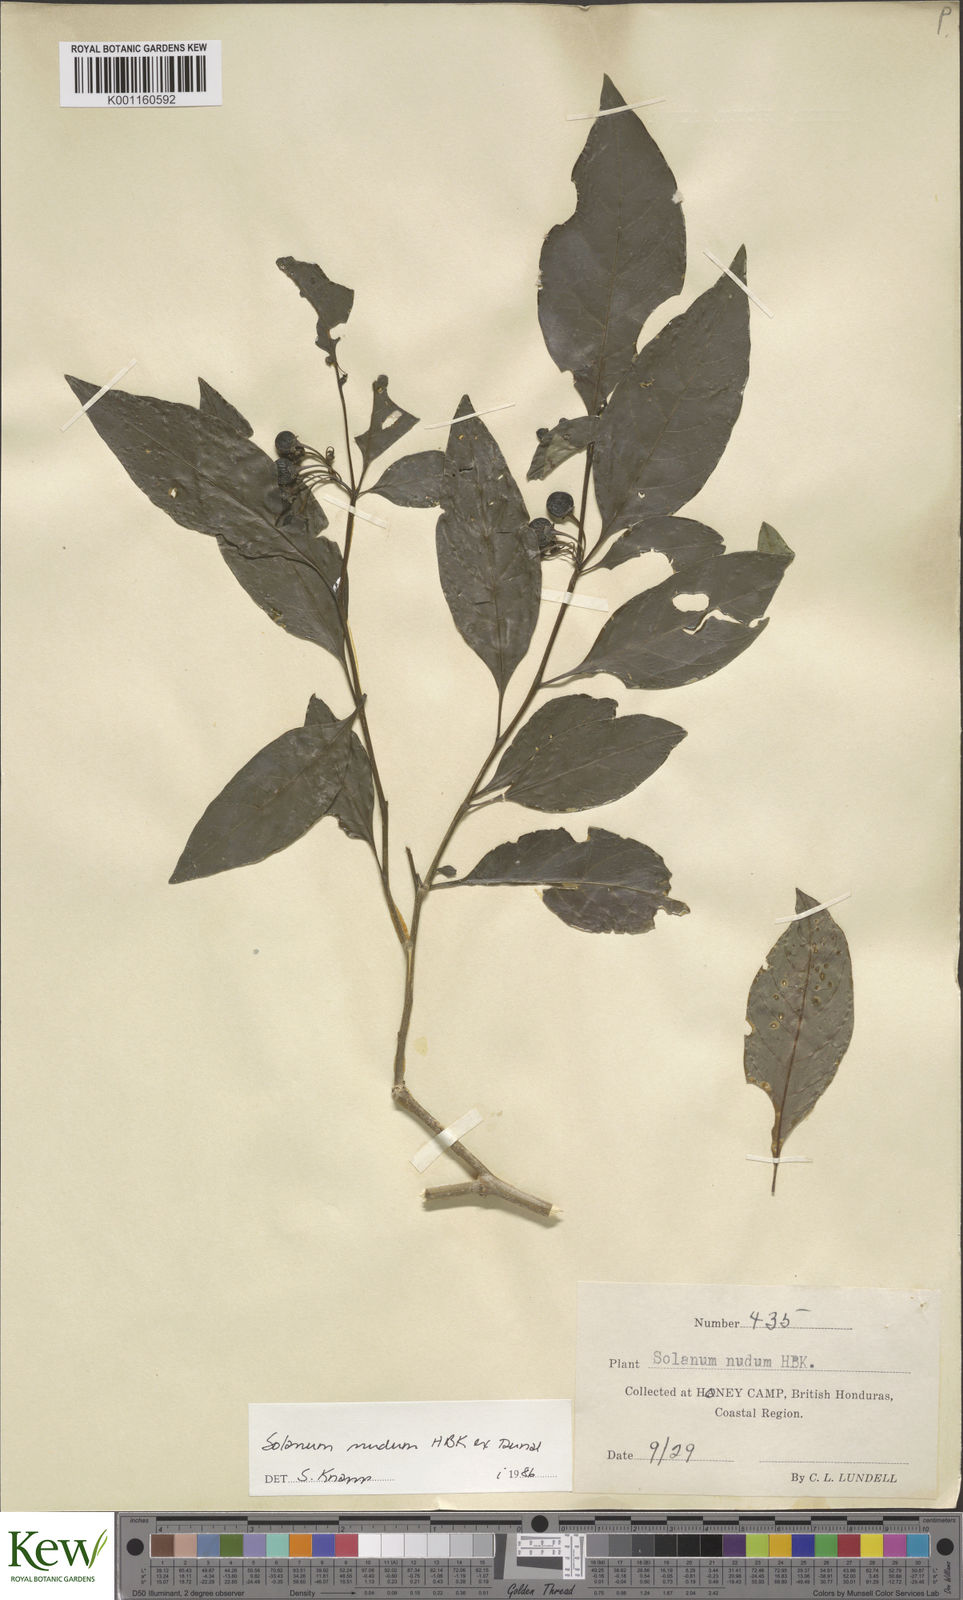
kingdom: Plantae
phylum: Tracheophyta
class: Magnoliopsida
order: Solanales
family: Solanaceae
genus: Solanum
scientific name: Solanum nudum
